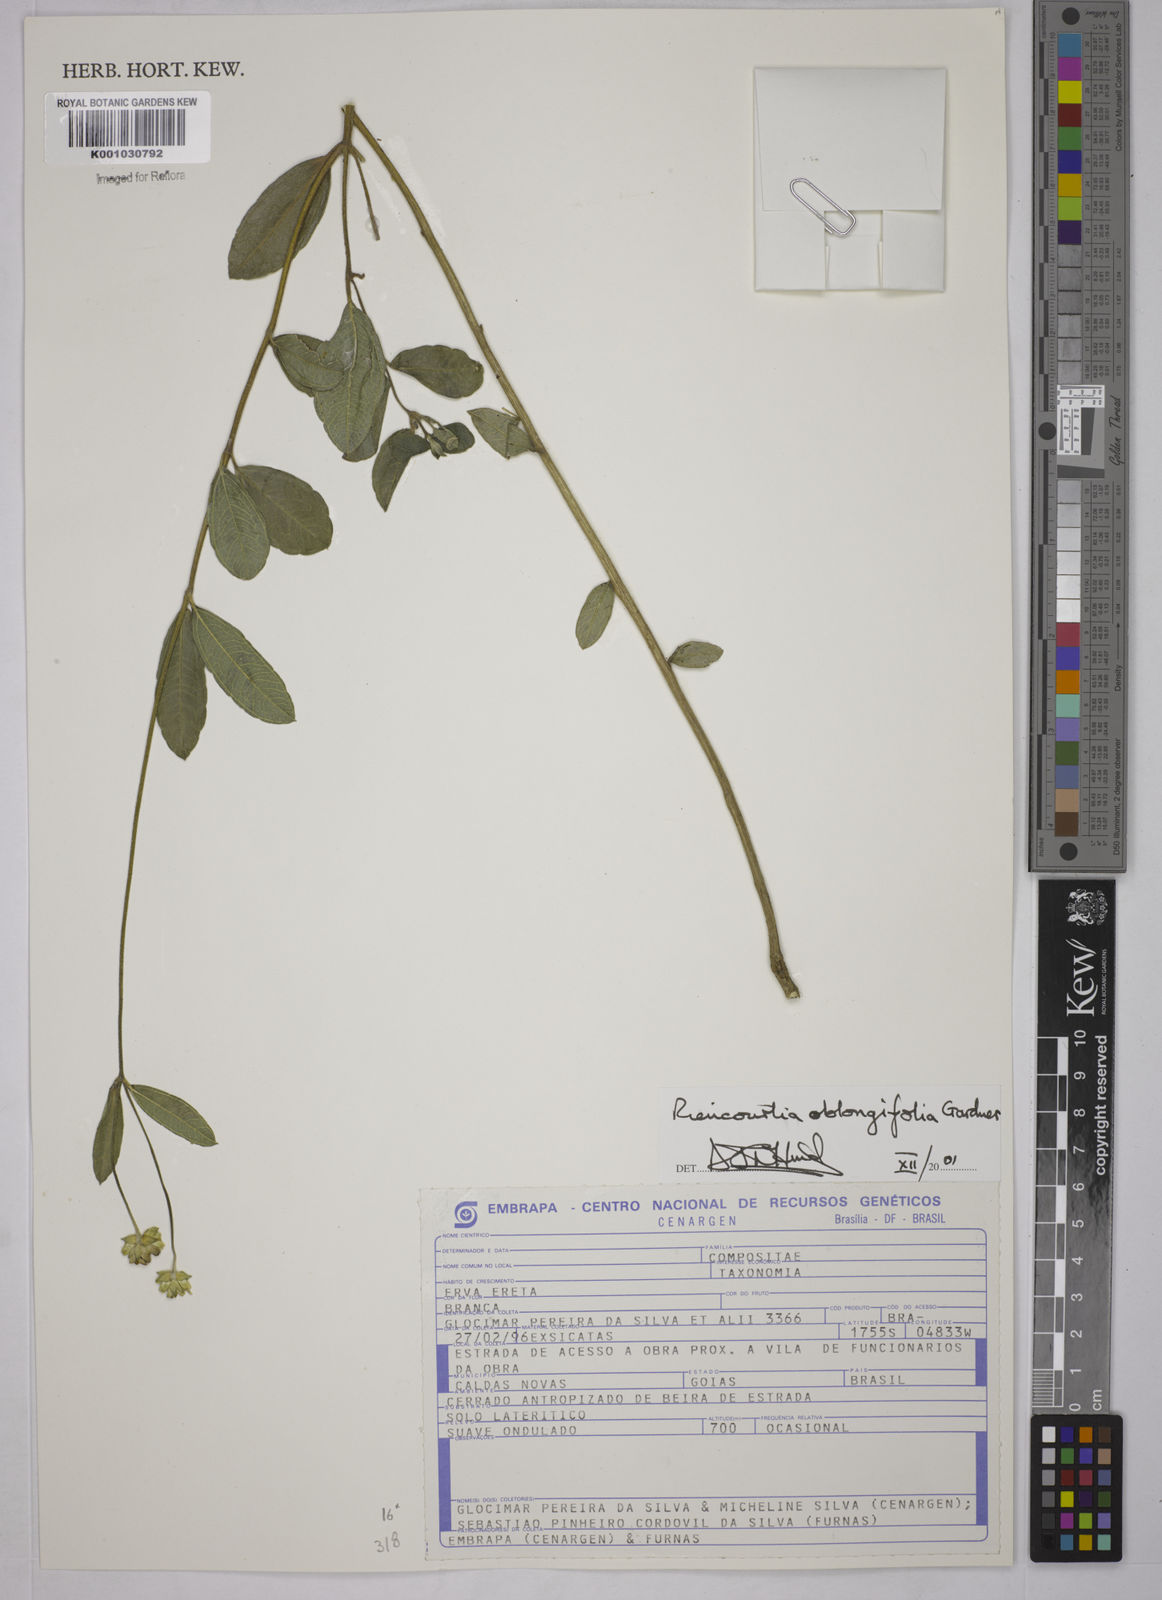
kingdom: Plantae
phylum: Tracheophyta
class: Magnoliopsida
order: Asterales
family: Asteraceae
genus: Riencourtia
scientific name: Riencourtia oblongifolia
